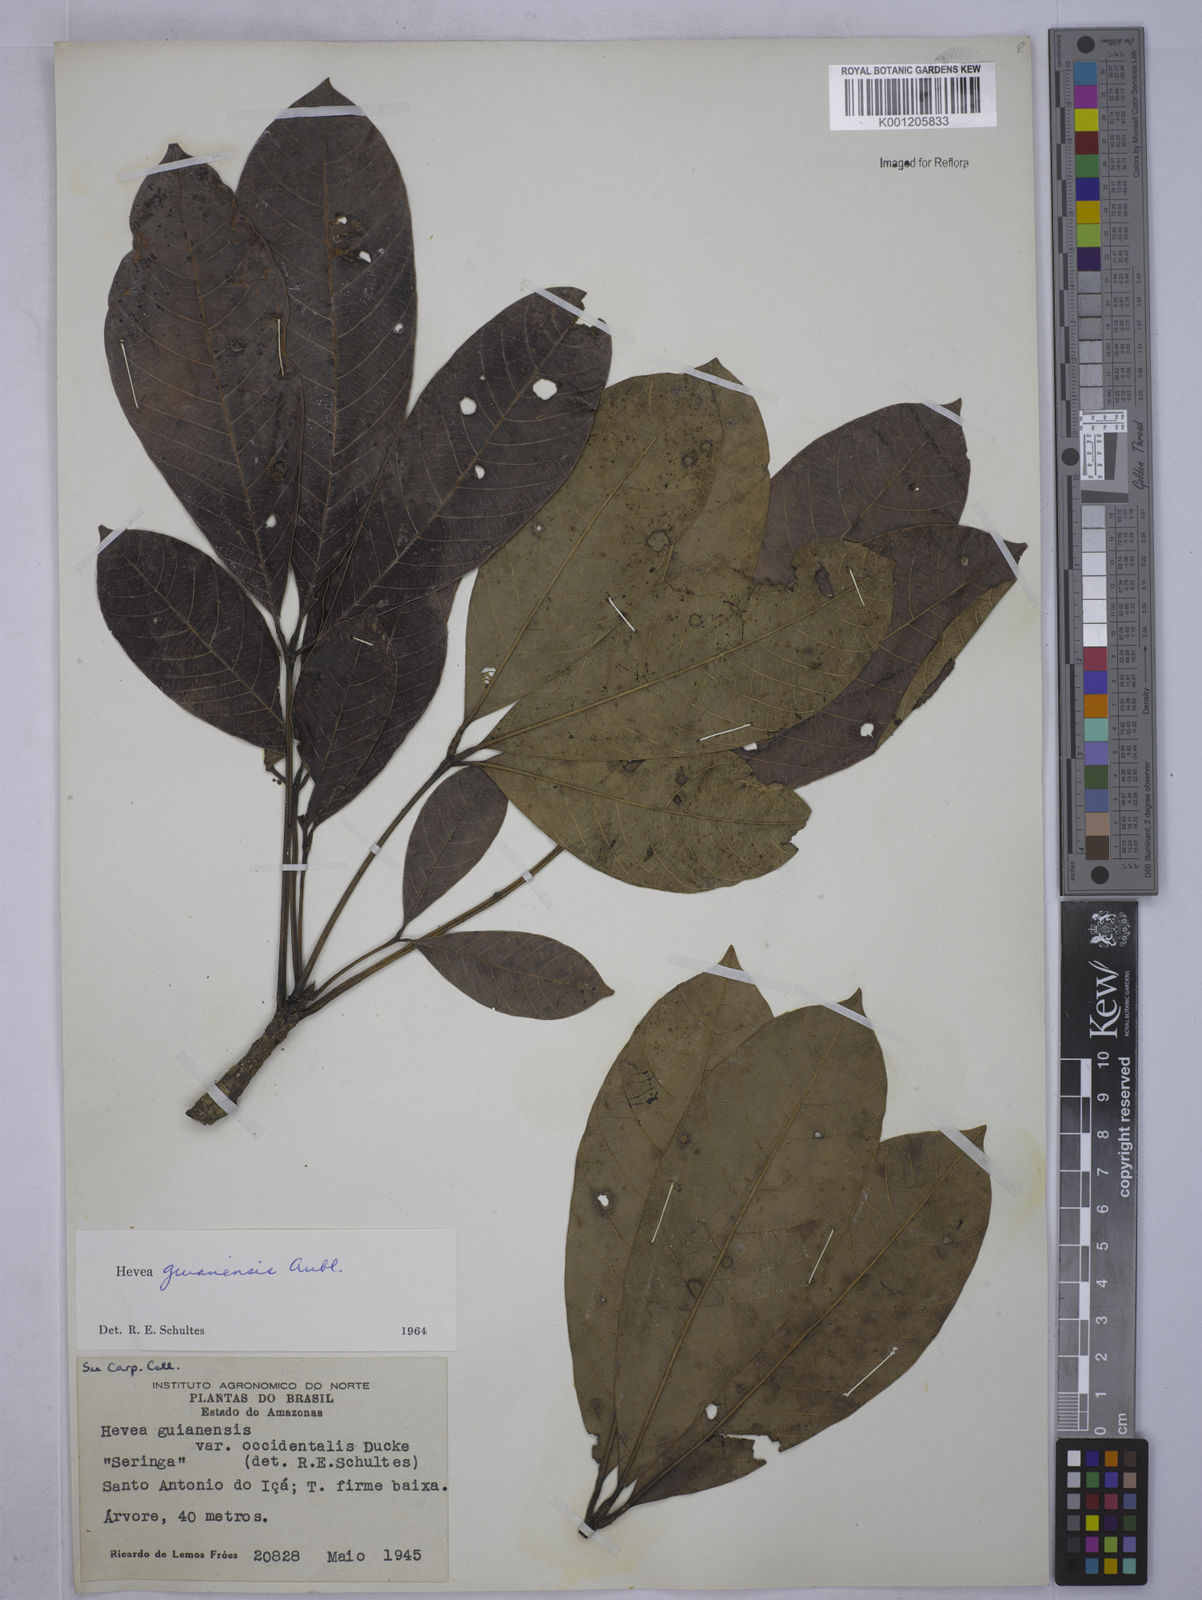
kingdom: Plantae
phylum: Tracheophyta
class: Magnoliopsida
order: Malpighiales
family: Euphorbiaceae
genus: Hevea
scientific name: Hevea guianensis
